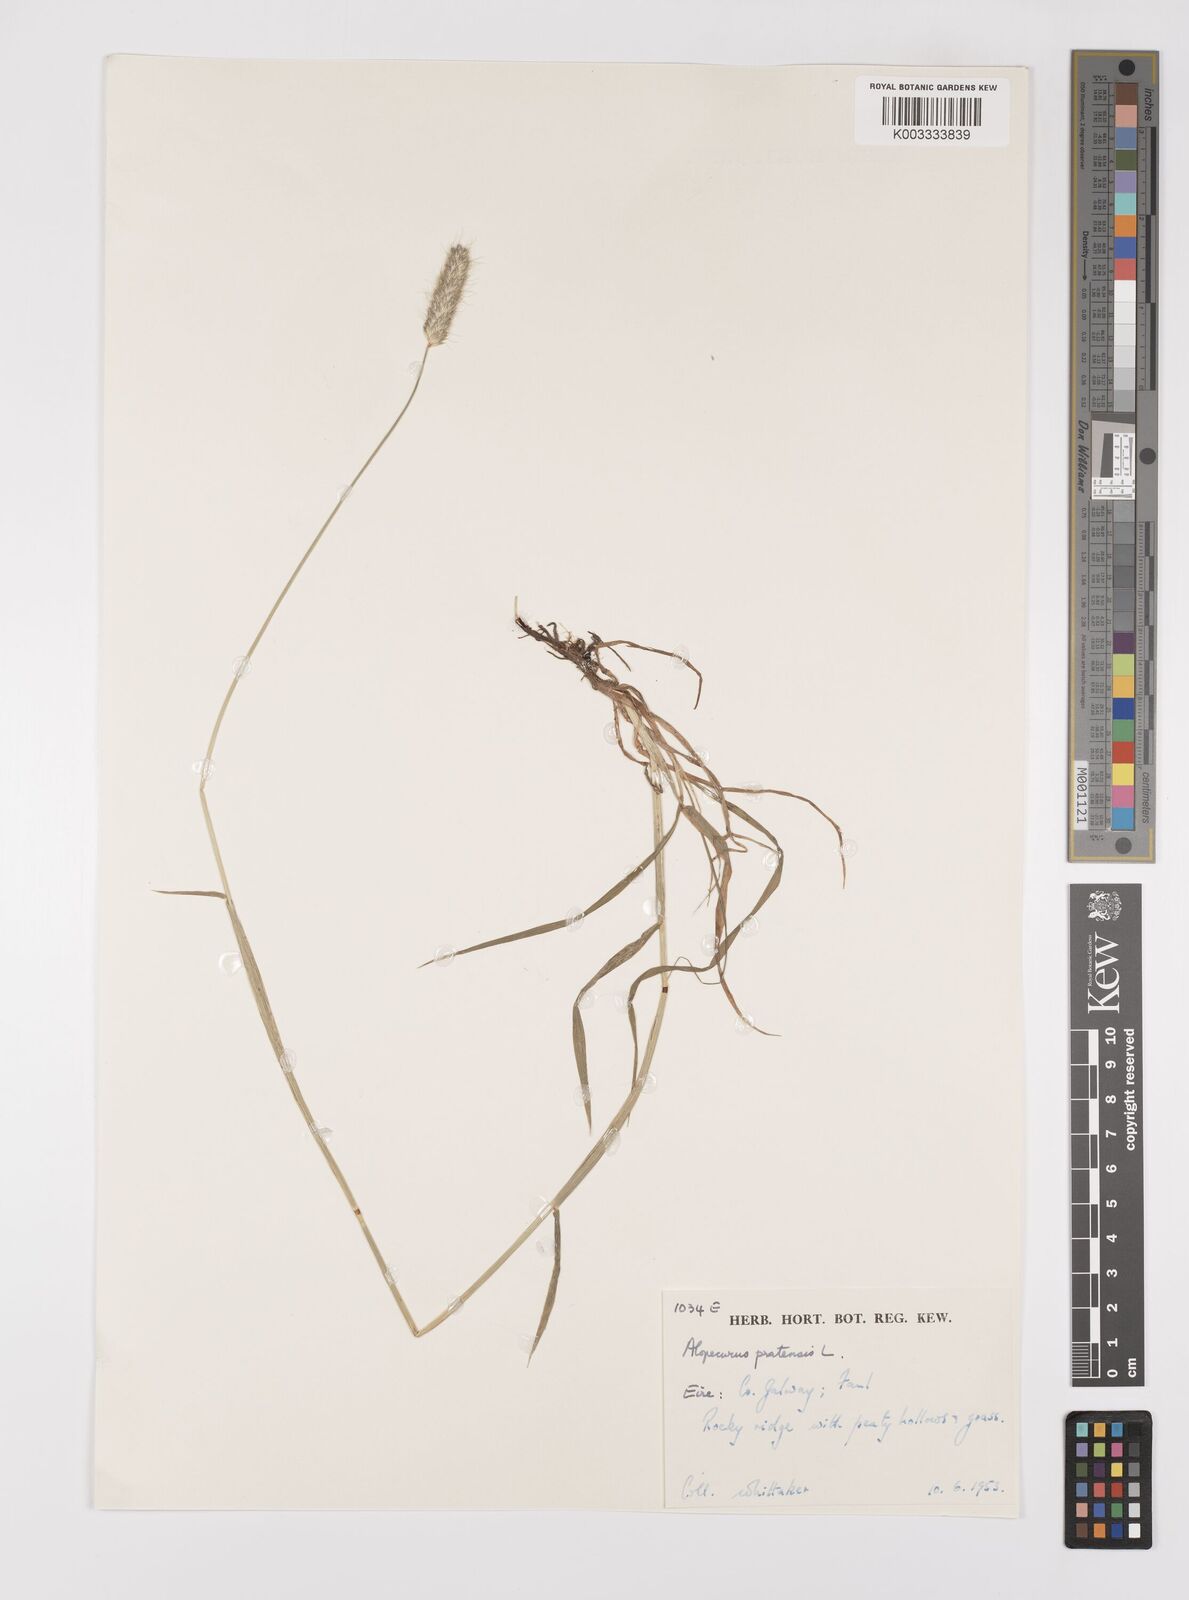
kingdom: Plantae
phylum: Tracheophyta
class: Liliopsida
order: Poales
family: Poaceae
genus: Alopecurus
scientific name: Alopecurus pratensis
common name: Meadow foxtail
